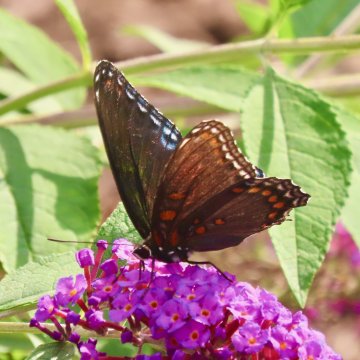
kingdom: Animalia
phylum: Arthropoda
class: Insecta
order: Lepidoptera
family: Nymphalidae
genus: Limenitis
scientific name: Limenitis arthemis
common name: Red-spotted Admiral
